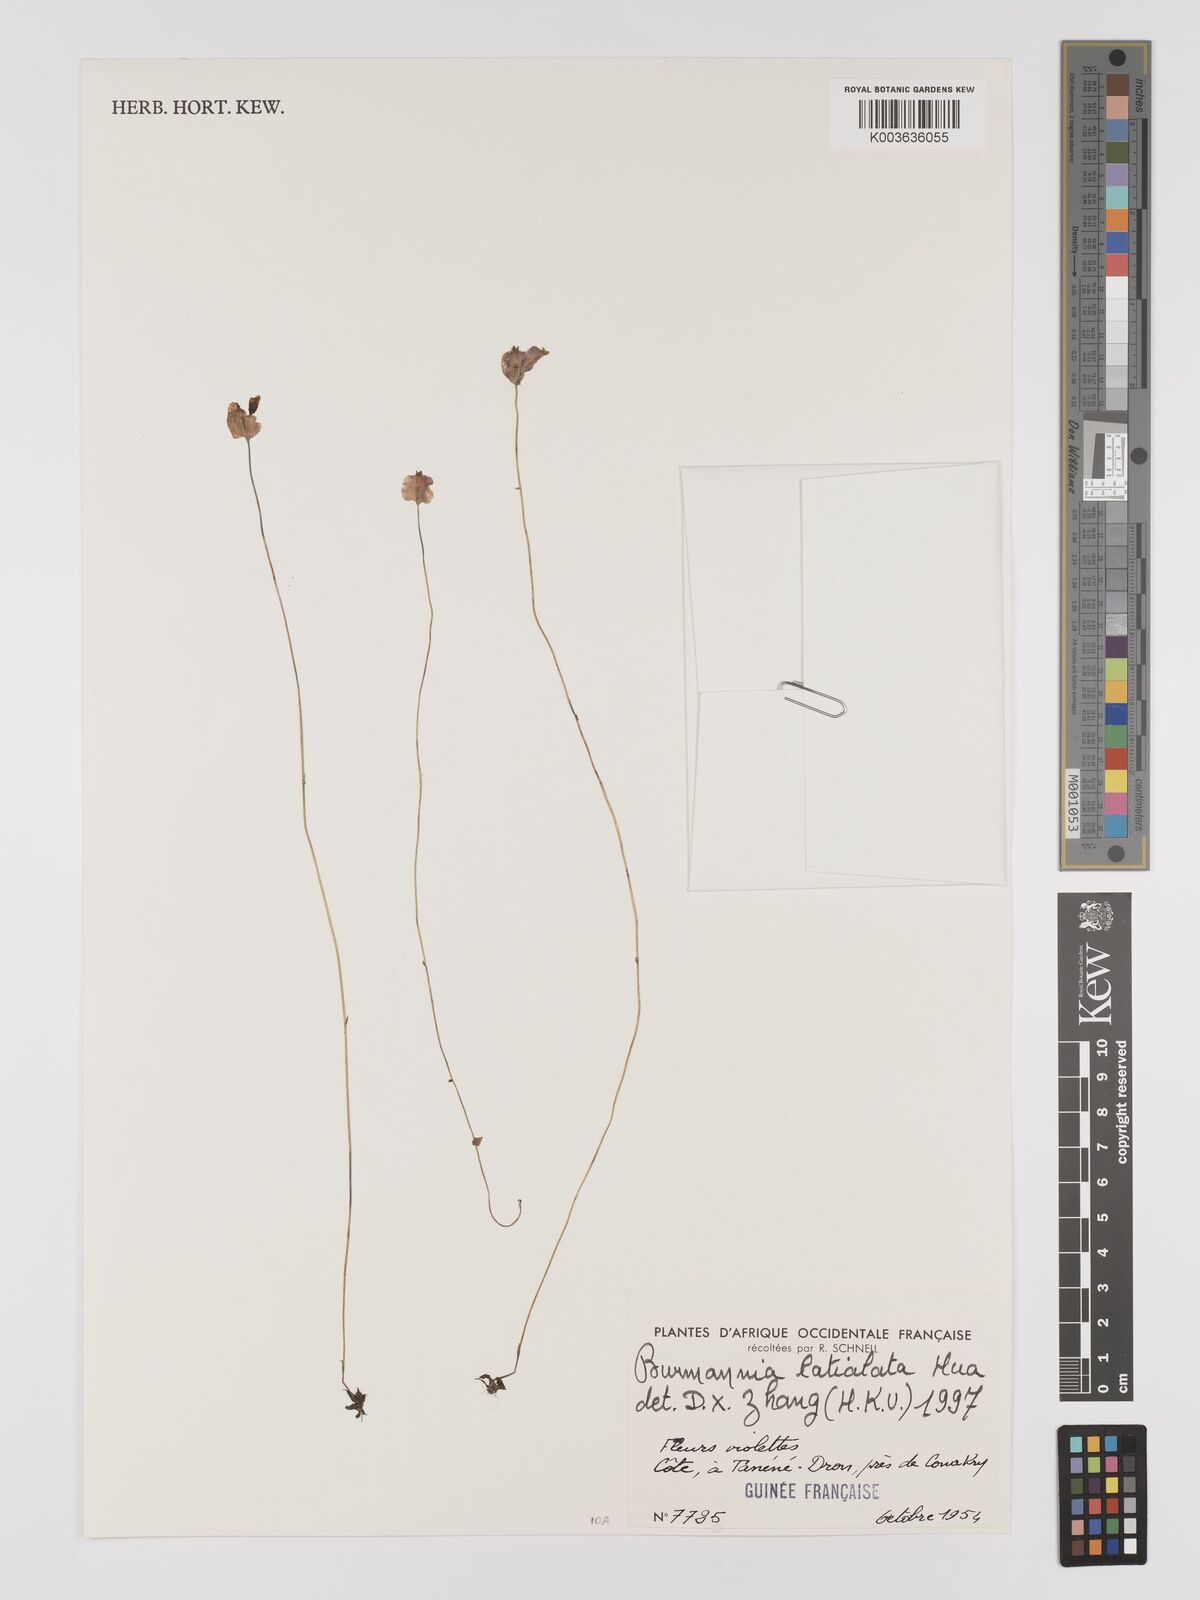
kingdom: Plantae
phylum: Tracheophyta
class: Liliopsida
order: Dioscoreales
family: Burmanniaceae
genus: Burmannia
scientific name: Burmannia madagascariensis
